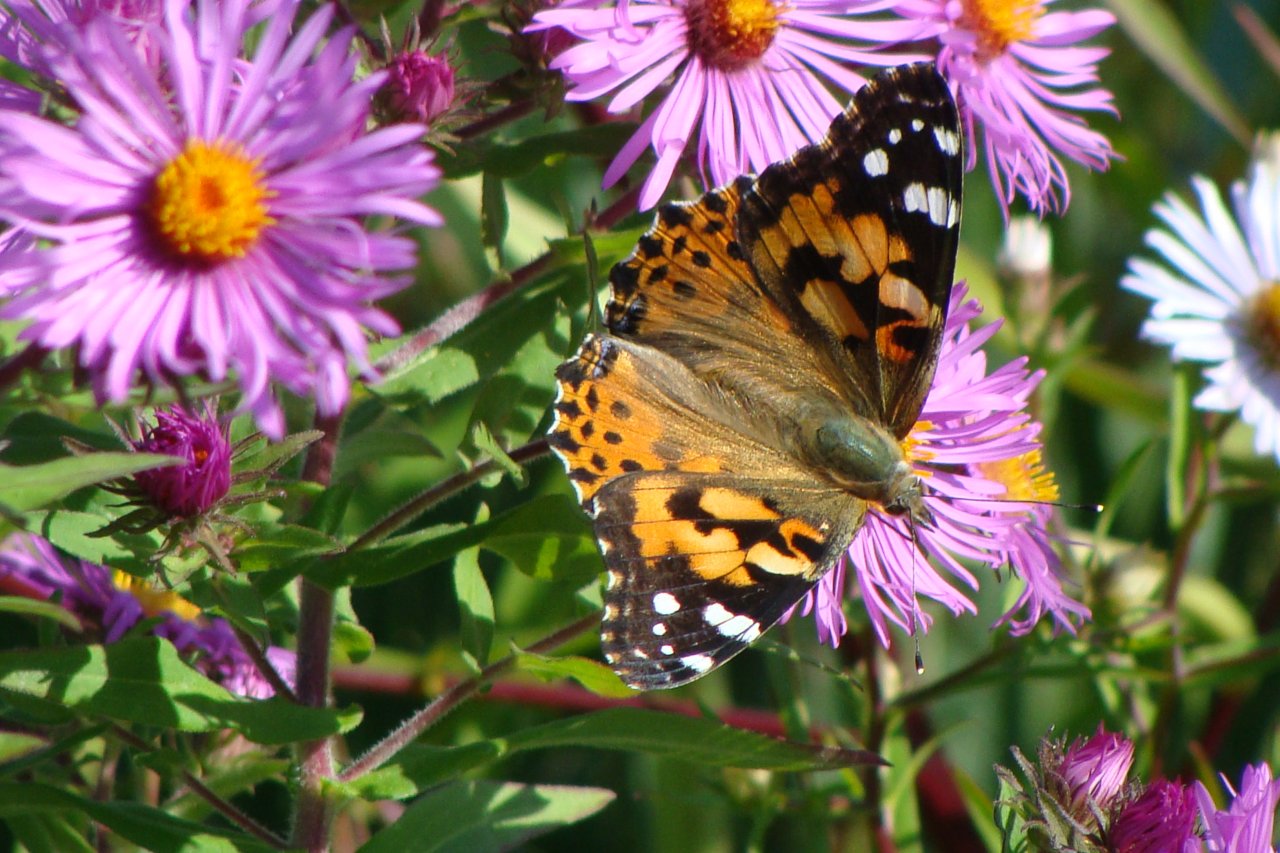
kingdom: Animalia
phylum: Arthropoda
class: Insecta
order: Lepidoptera
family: Nymphalidae
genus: Vanessa
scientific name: Vanessa cardui
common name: Painted Lady
